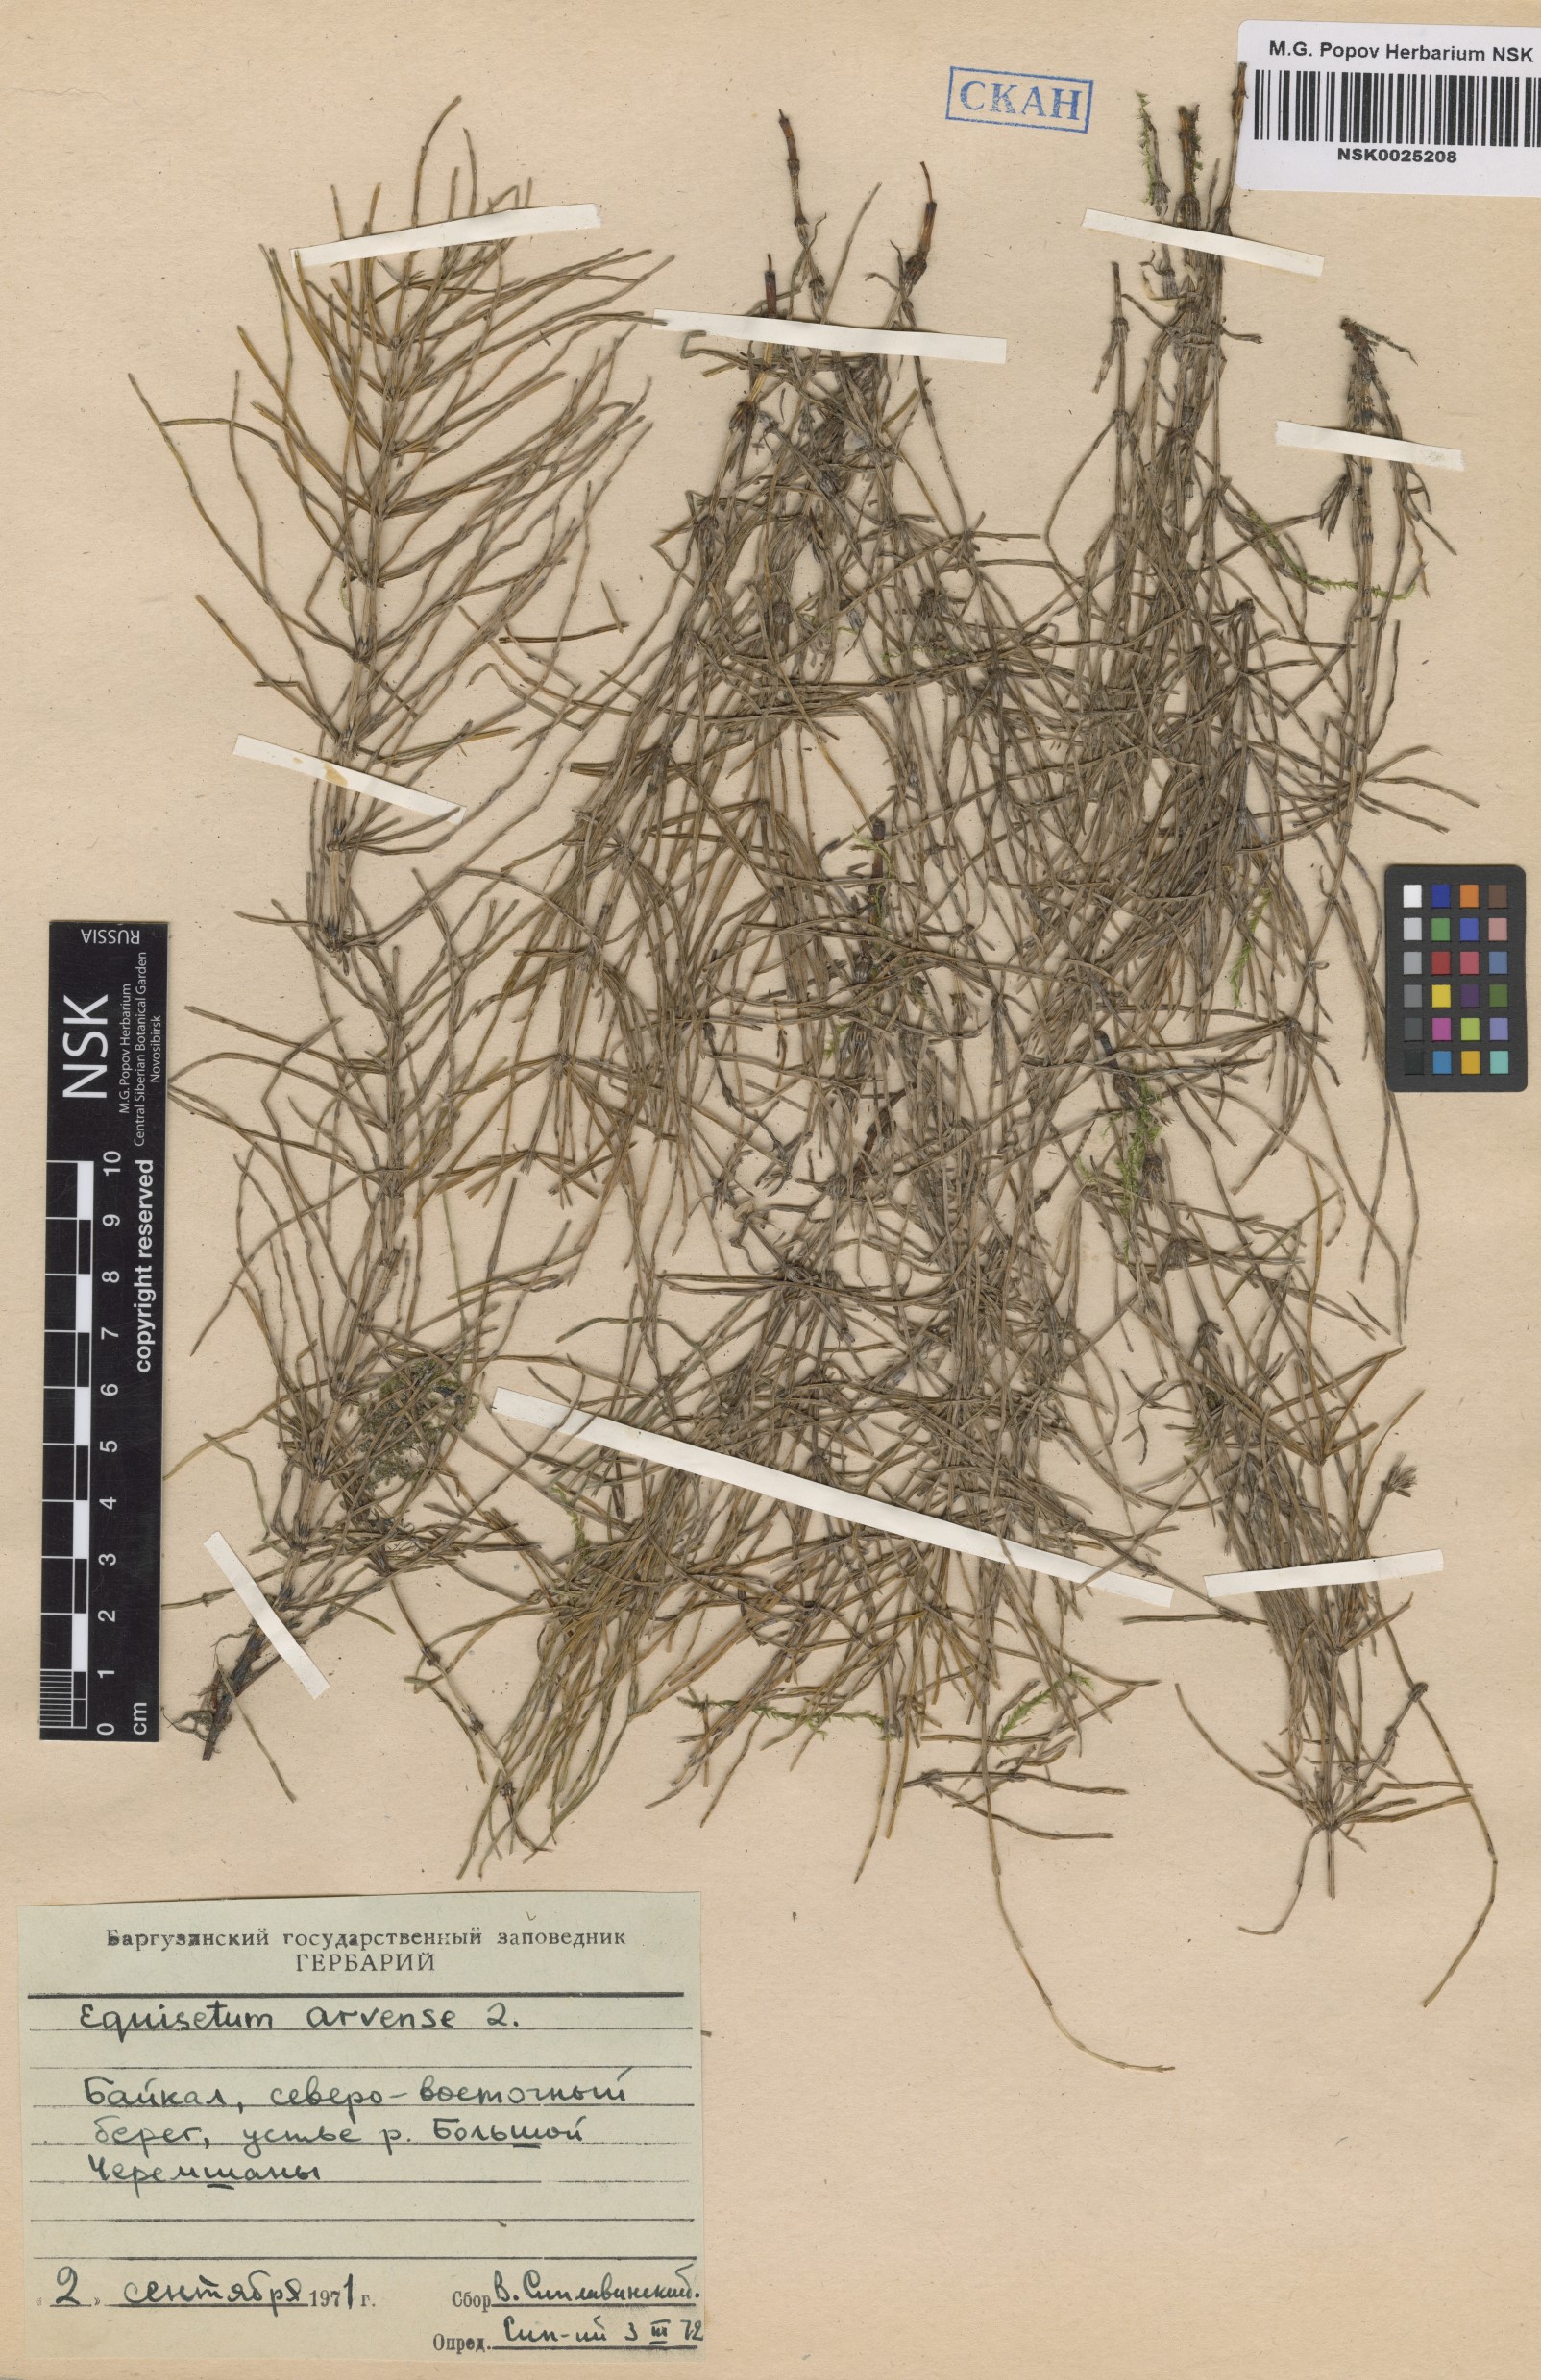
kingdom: Plantae
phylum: Tracheophyta
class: Polypodiopsida
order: Equisetales
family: Equisetaceae
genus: Equisetum
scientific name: Equisetum arvense
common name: Field horsetail
